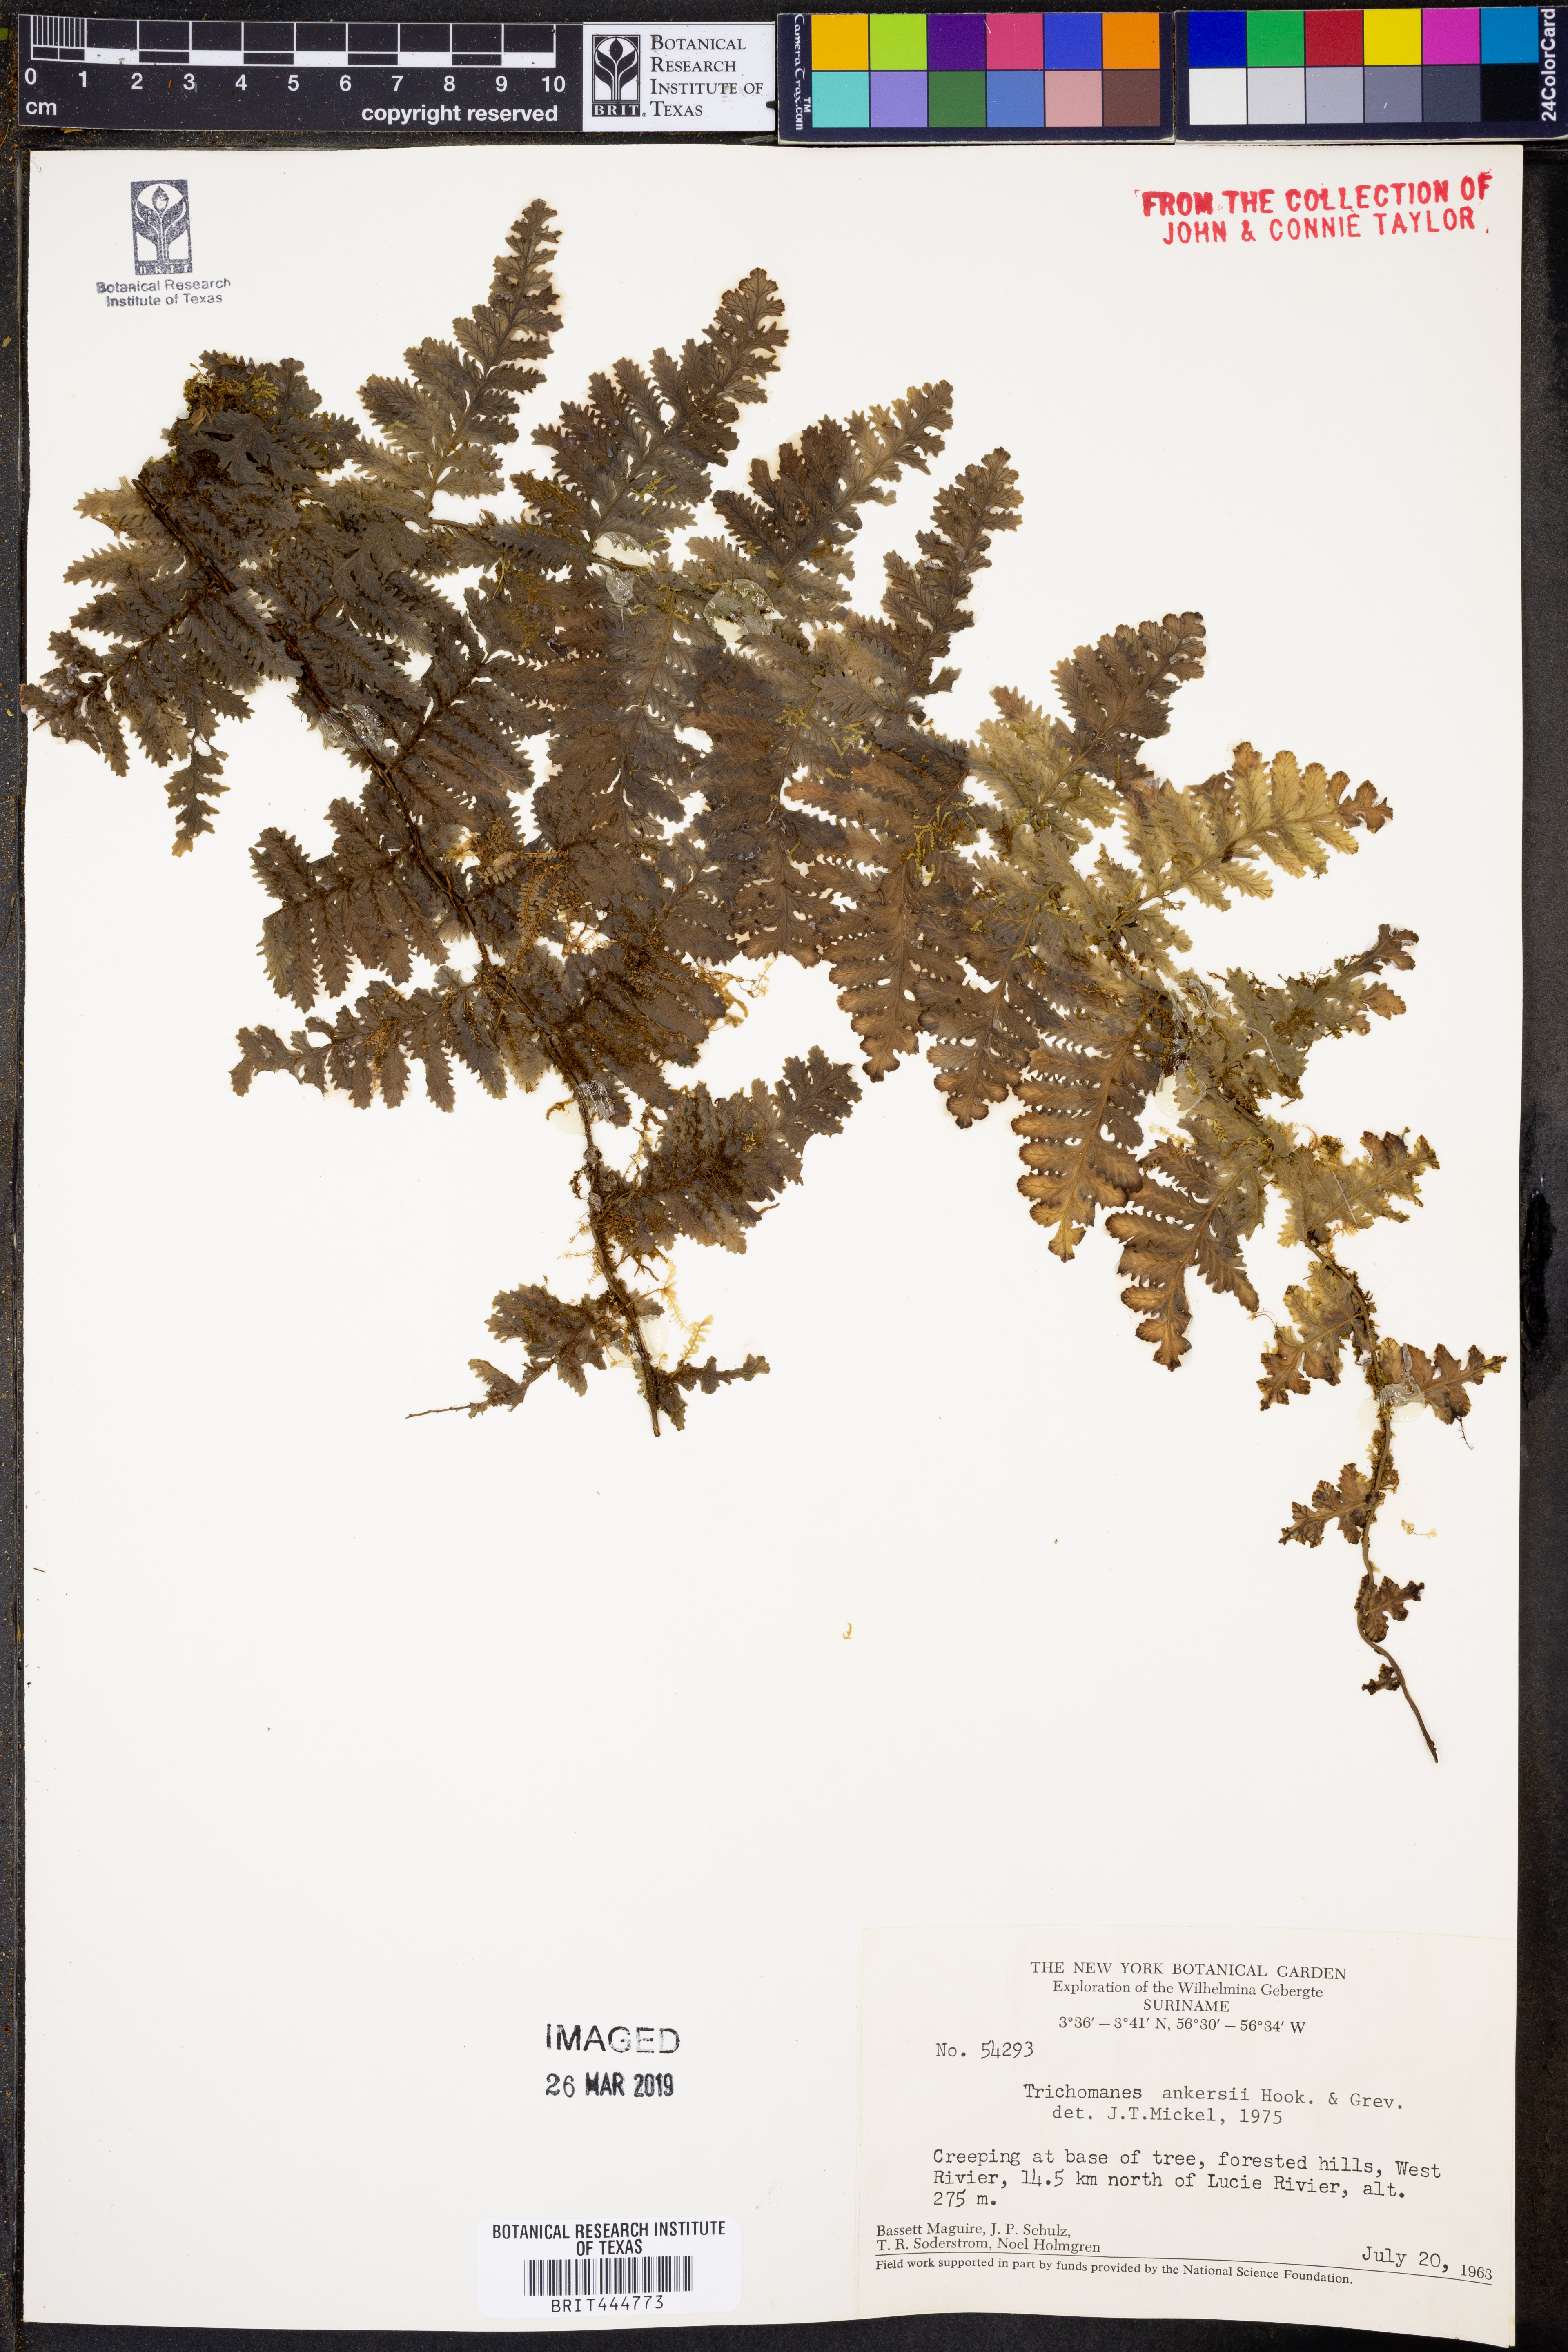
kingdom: Plantae
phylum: Tracheophyta
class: Polypodiopsida
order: Hymenophyllales
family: Hymenophyllaceae
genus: Trichomanes
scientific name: Trichomanes ankersii
